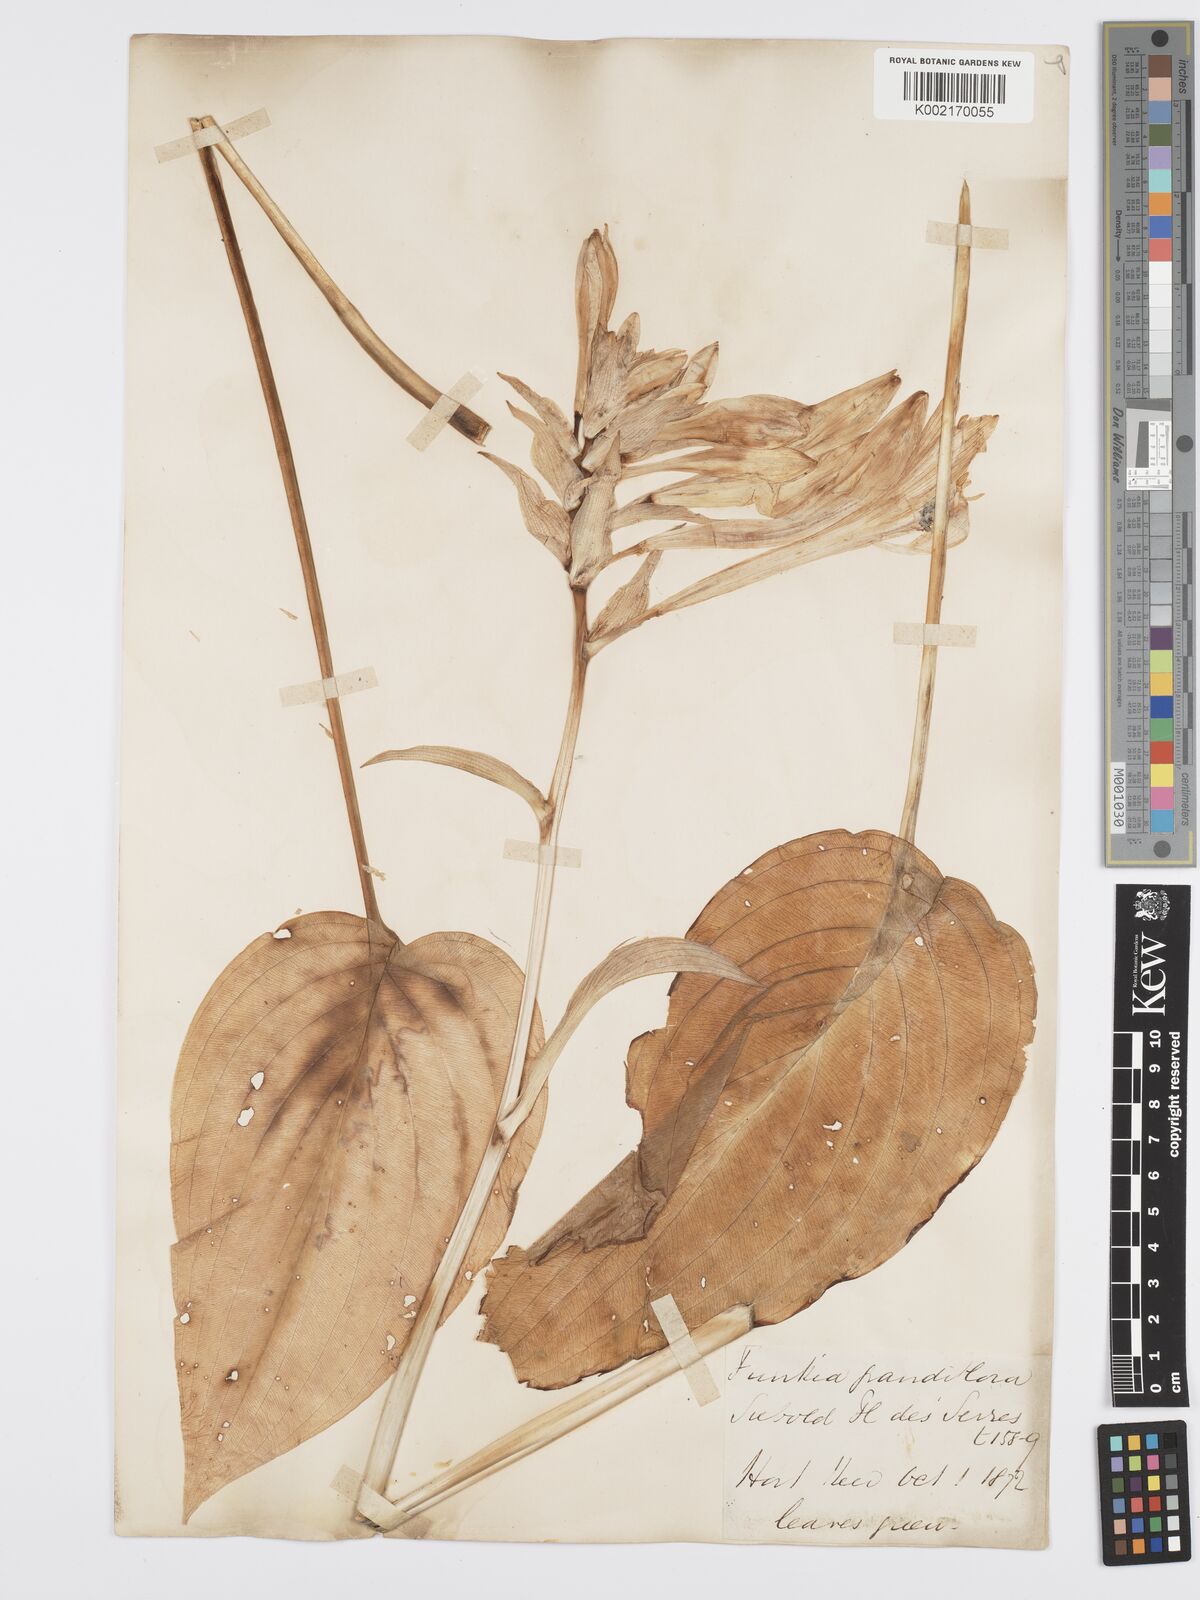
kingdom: Plantae
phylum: Tracheophyta
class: Liliopsida
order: Asparagales
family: Asparagaceae
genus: Hosta
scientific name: Hosta plantaginea
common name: August-lily
